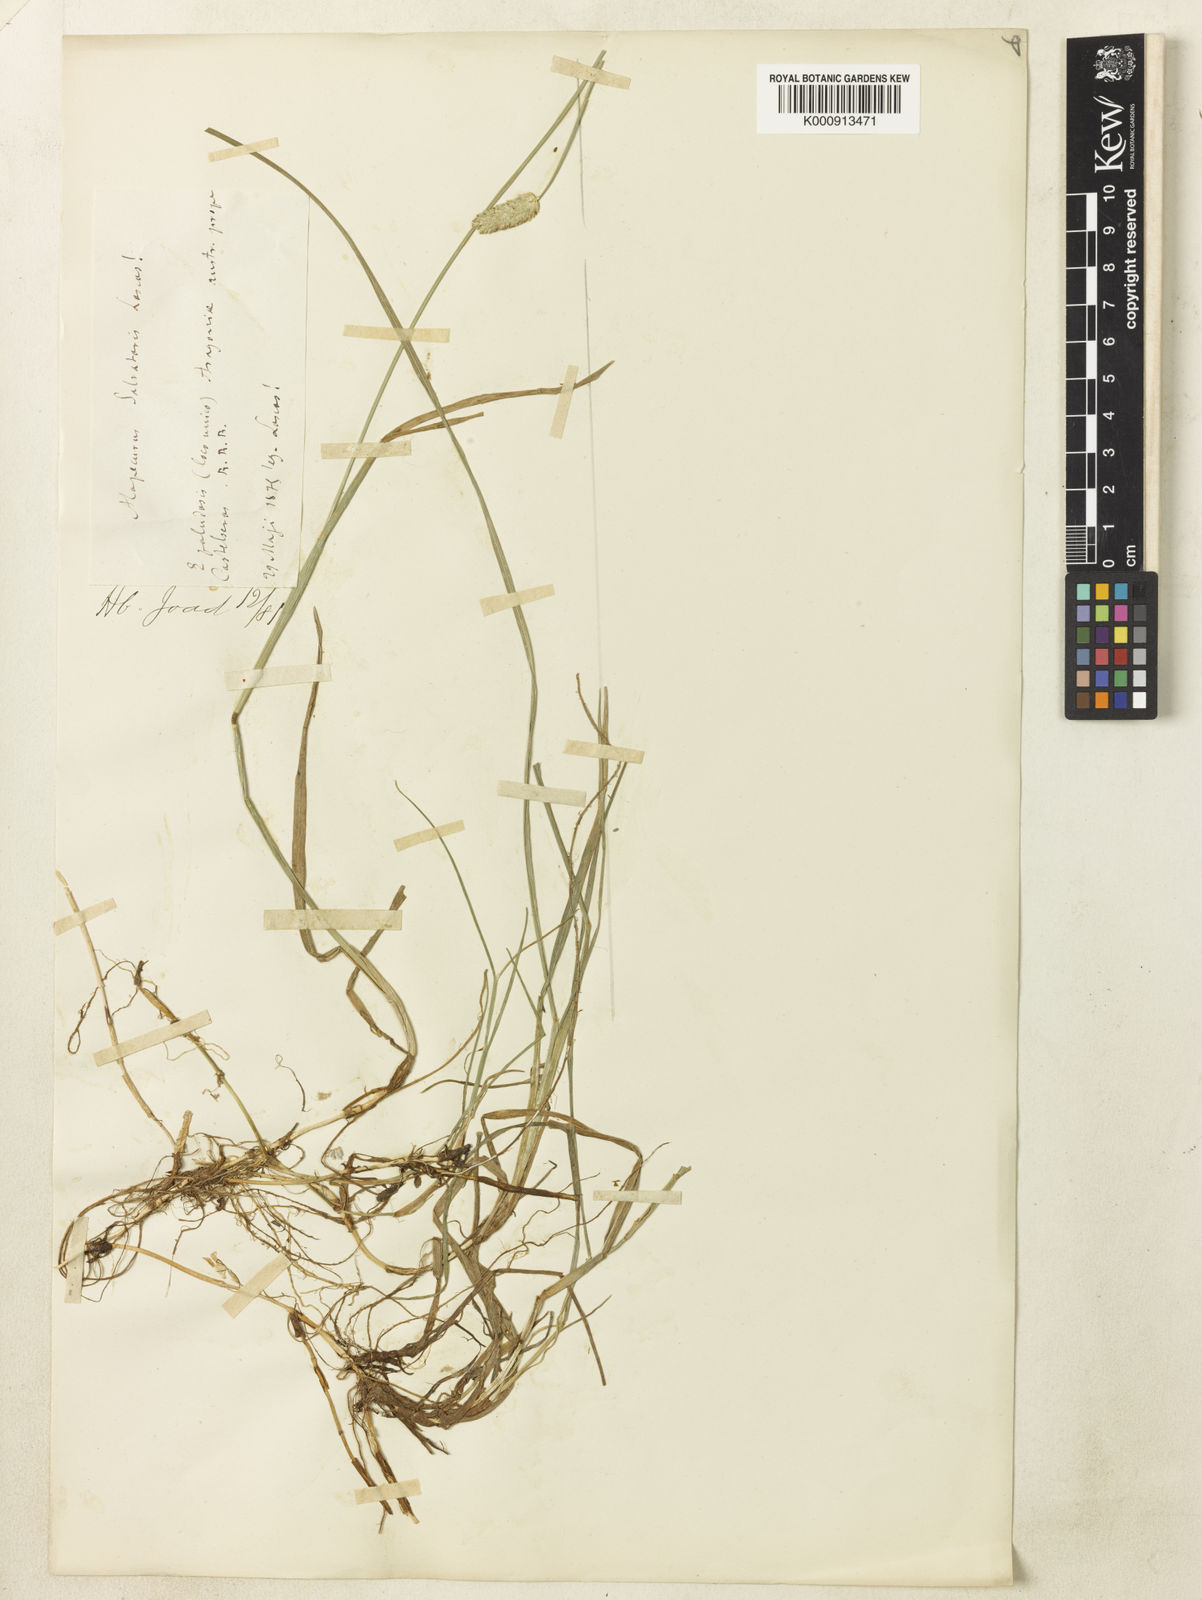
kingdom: Plantae
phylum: Tracheophyta
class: Liliopsida
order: Poales
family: Poaceae
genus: Alopecurus
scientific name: Alopecurus arundinaceus
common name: Creeping meadow foxtail
